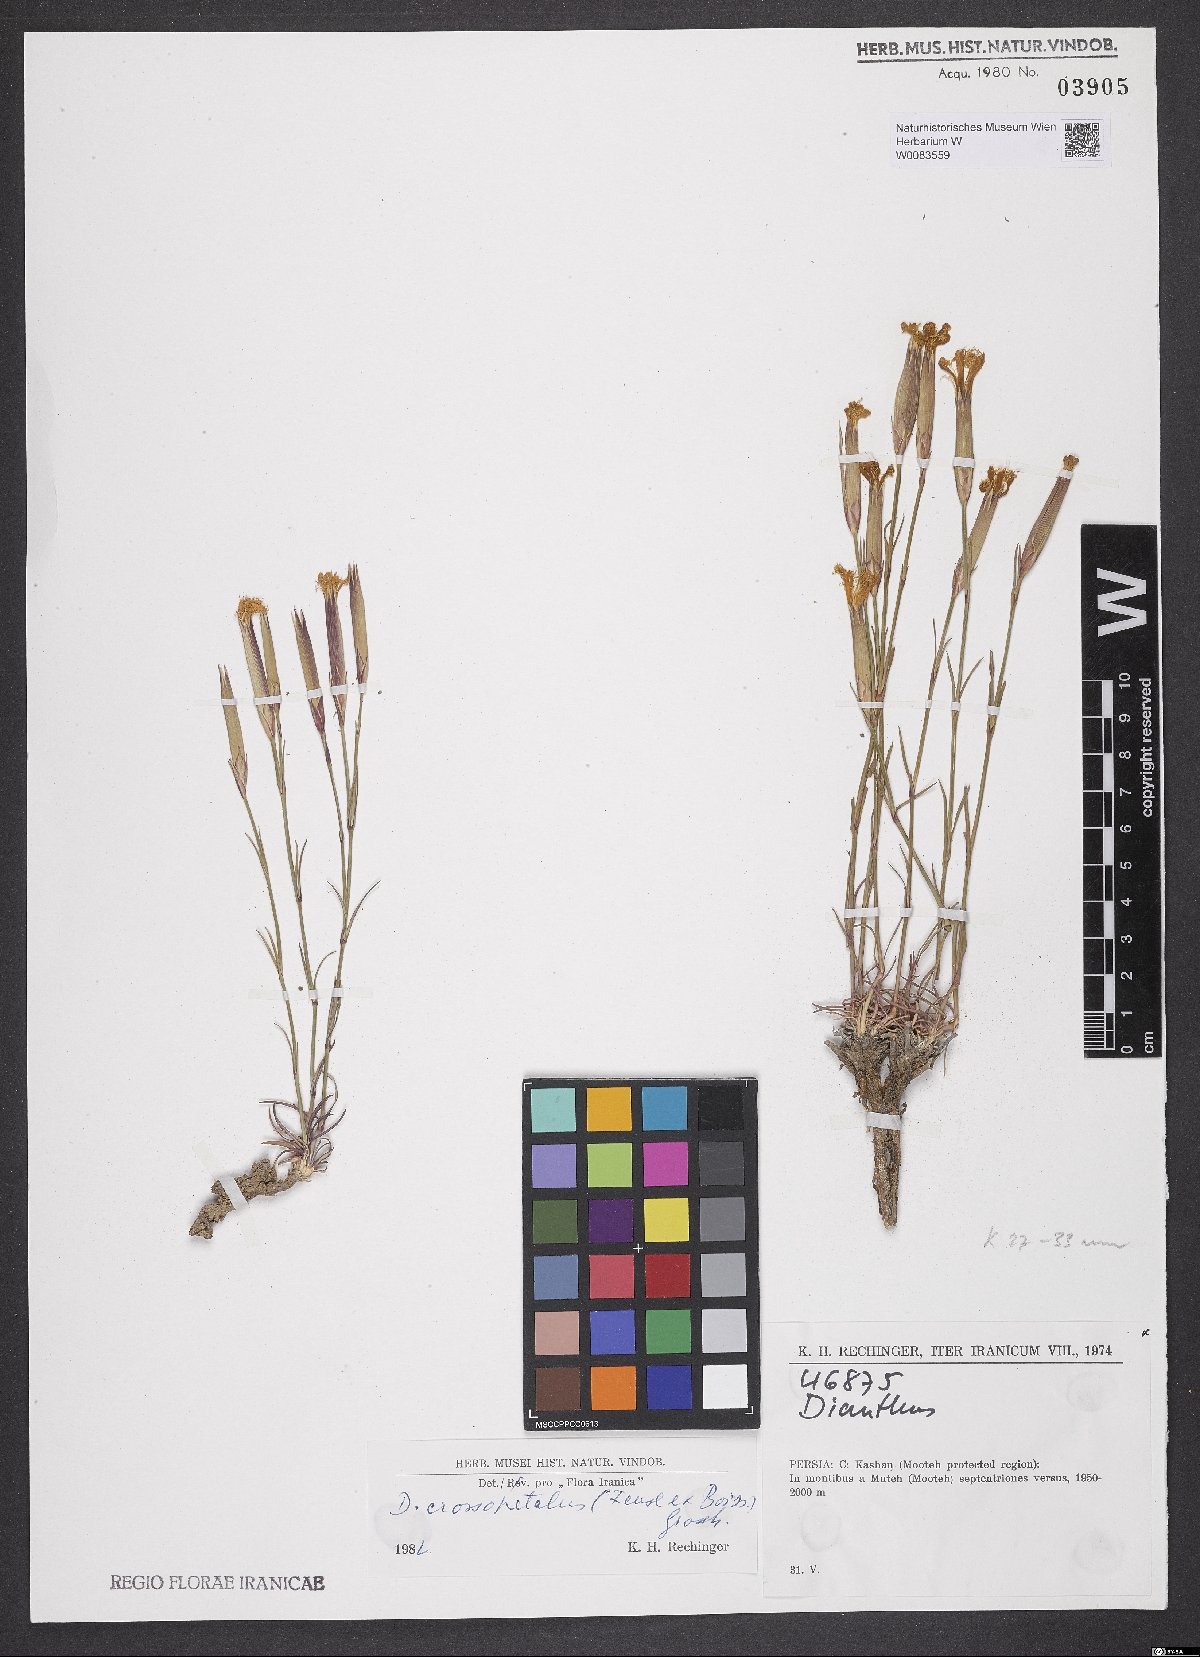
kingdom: Plantae
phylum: Tracheophyta
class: Magnoliopsida
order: Caryophyllales
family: Caryophyllaceae
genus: Dianthus
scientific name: Dianthus crossopetalus
